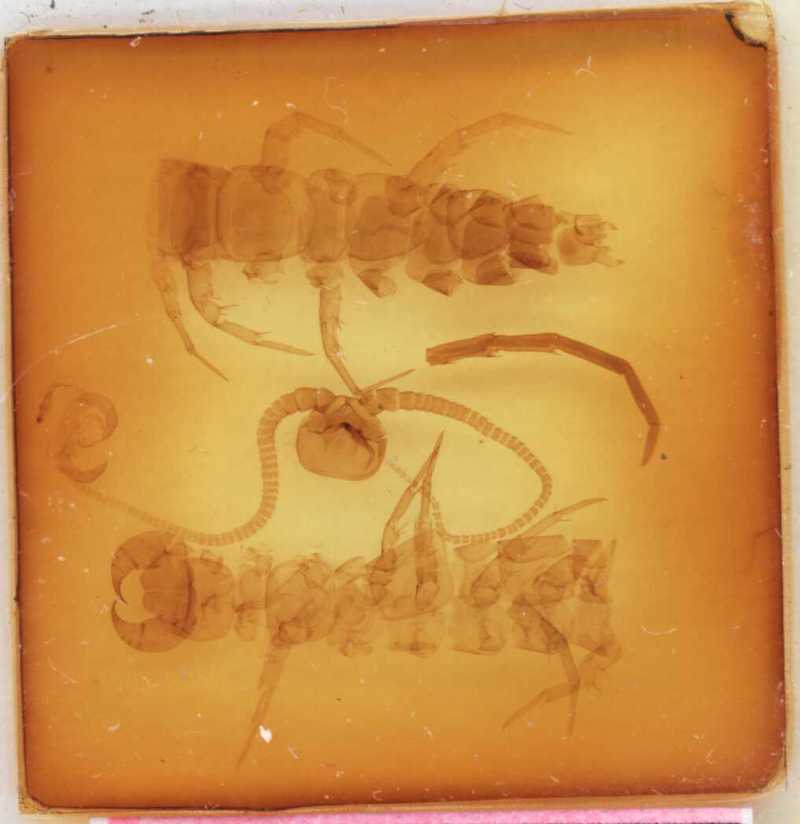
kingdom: Animalia
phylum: Arthropoda
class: Chilopoda
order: Lithobiomorpha
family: Lithobiidae
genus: Polybothrus
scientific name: Polybothrus hercegovinensis
